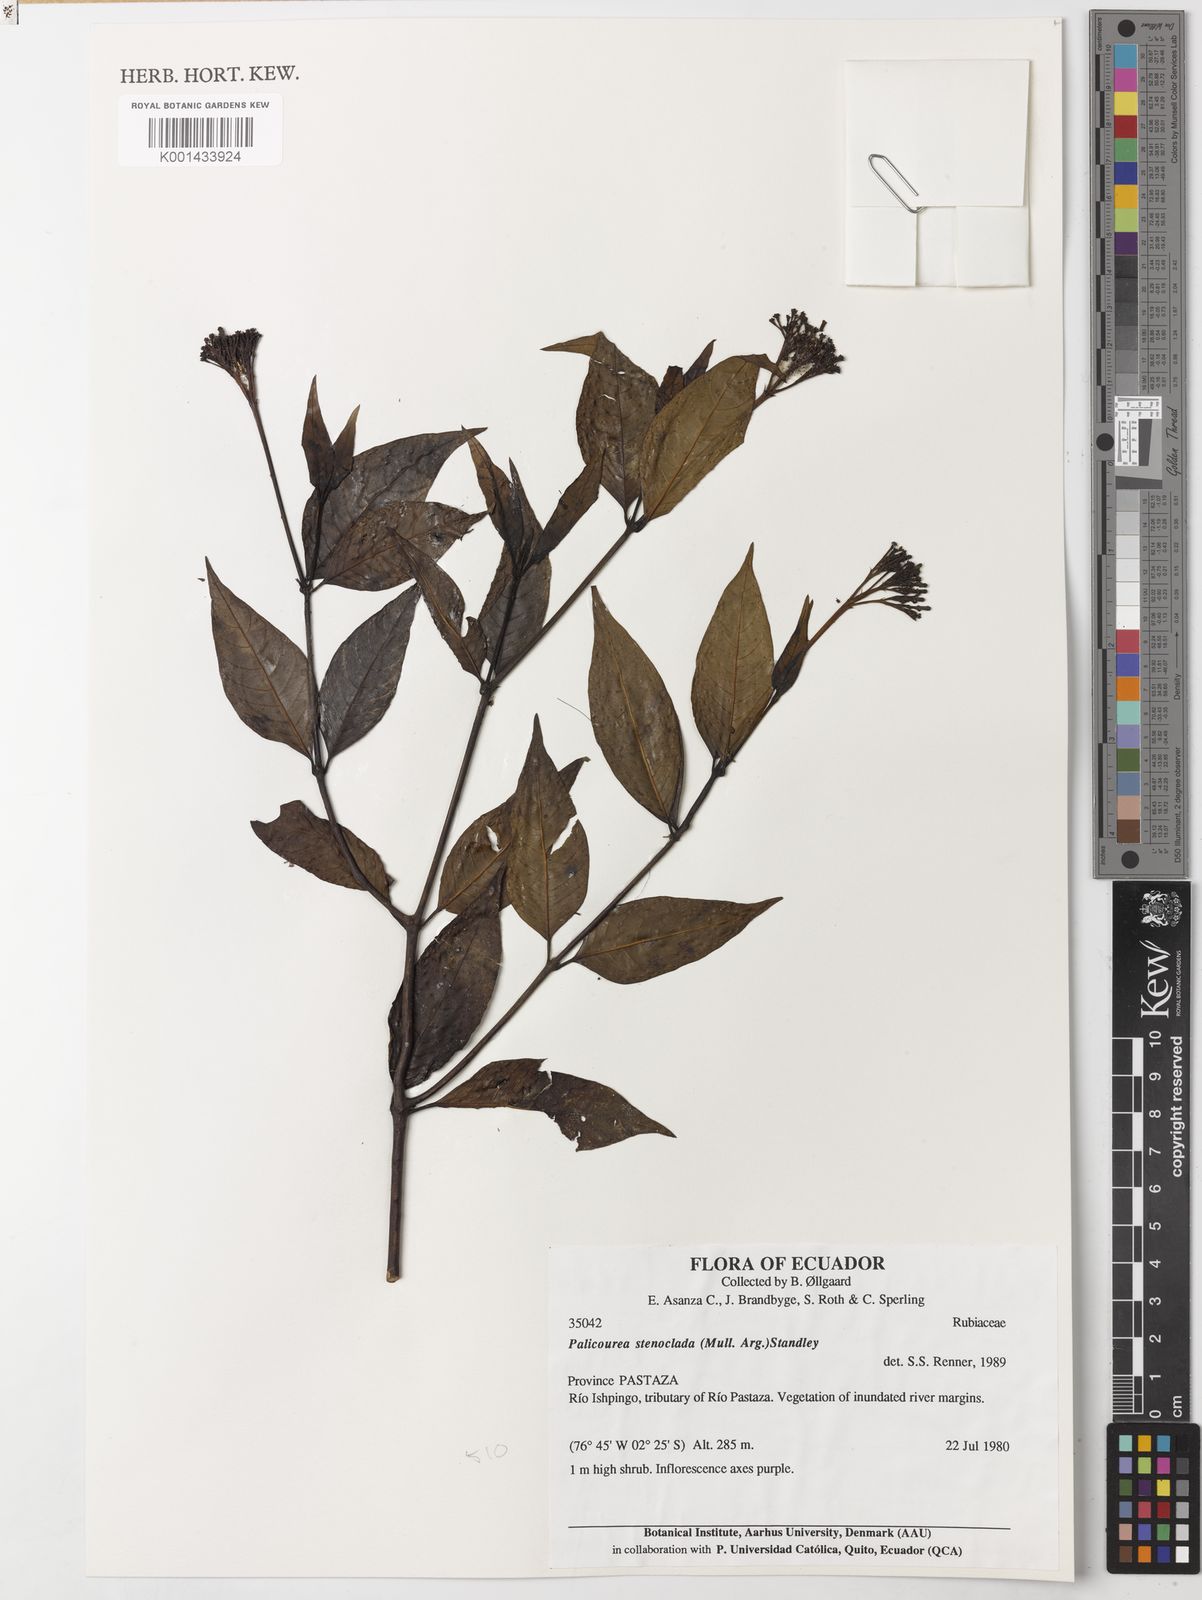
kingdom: Plantae
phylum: Tracheophyta
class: Magnoliopsida
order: Gentianales
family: Rubiaceae
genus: Palicourea
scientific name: Palicourea
